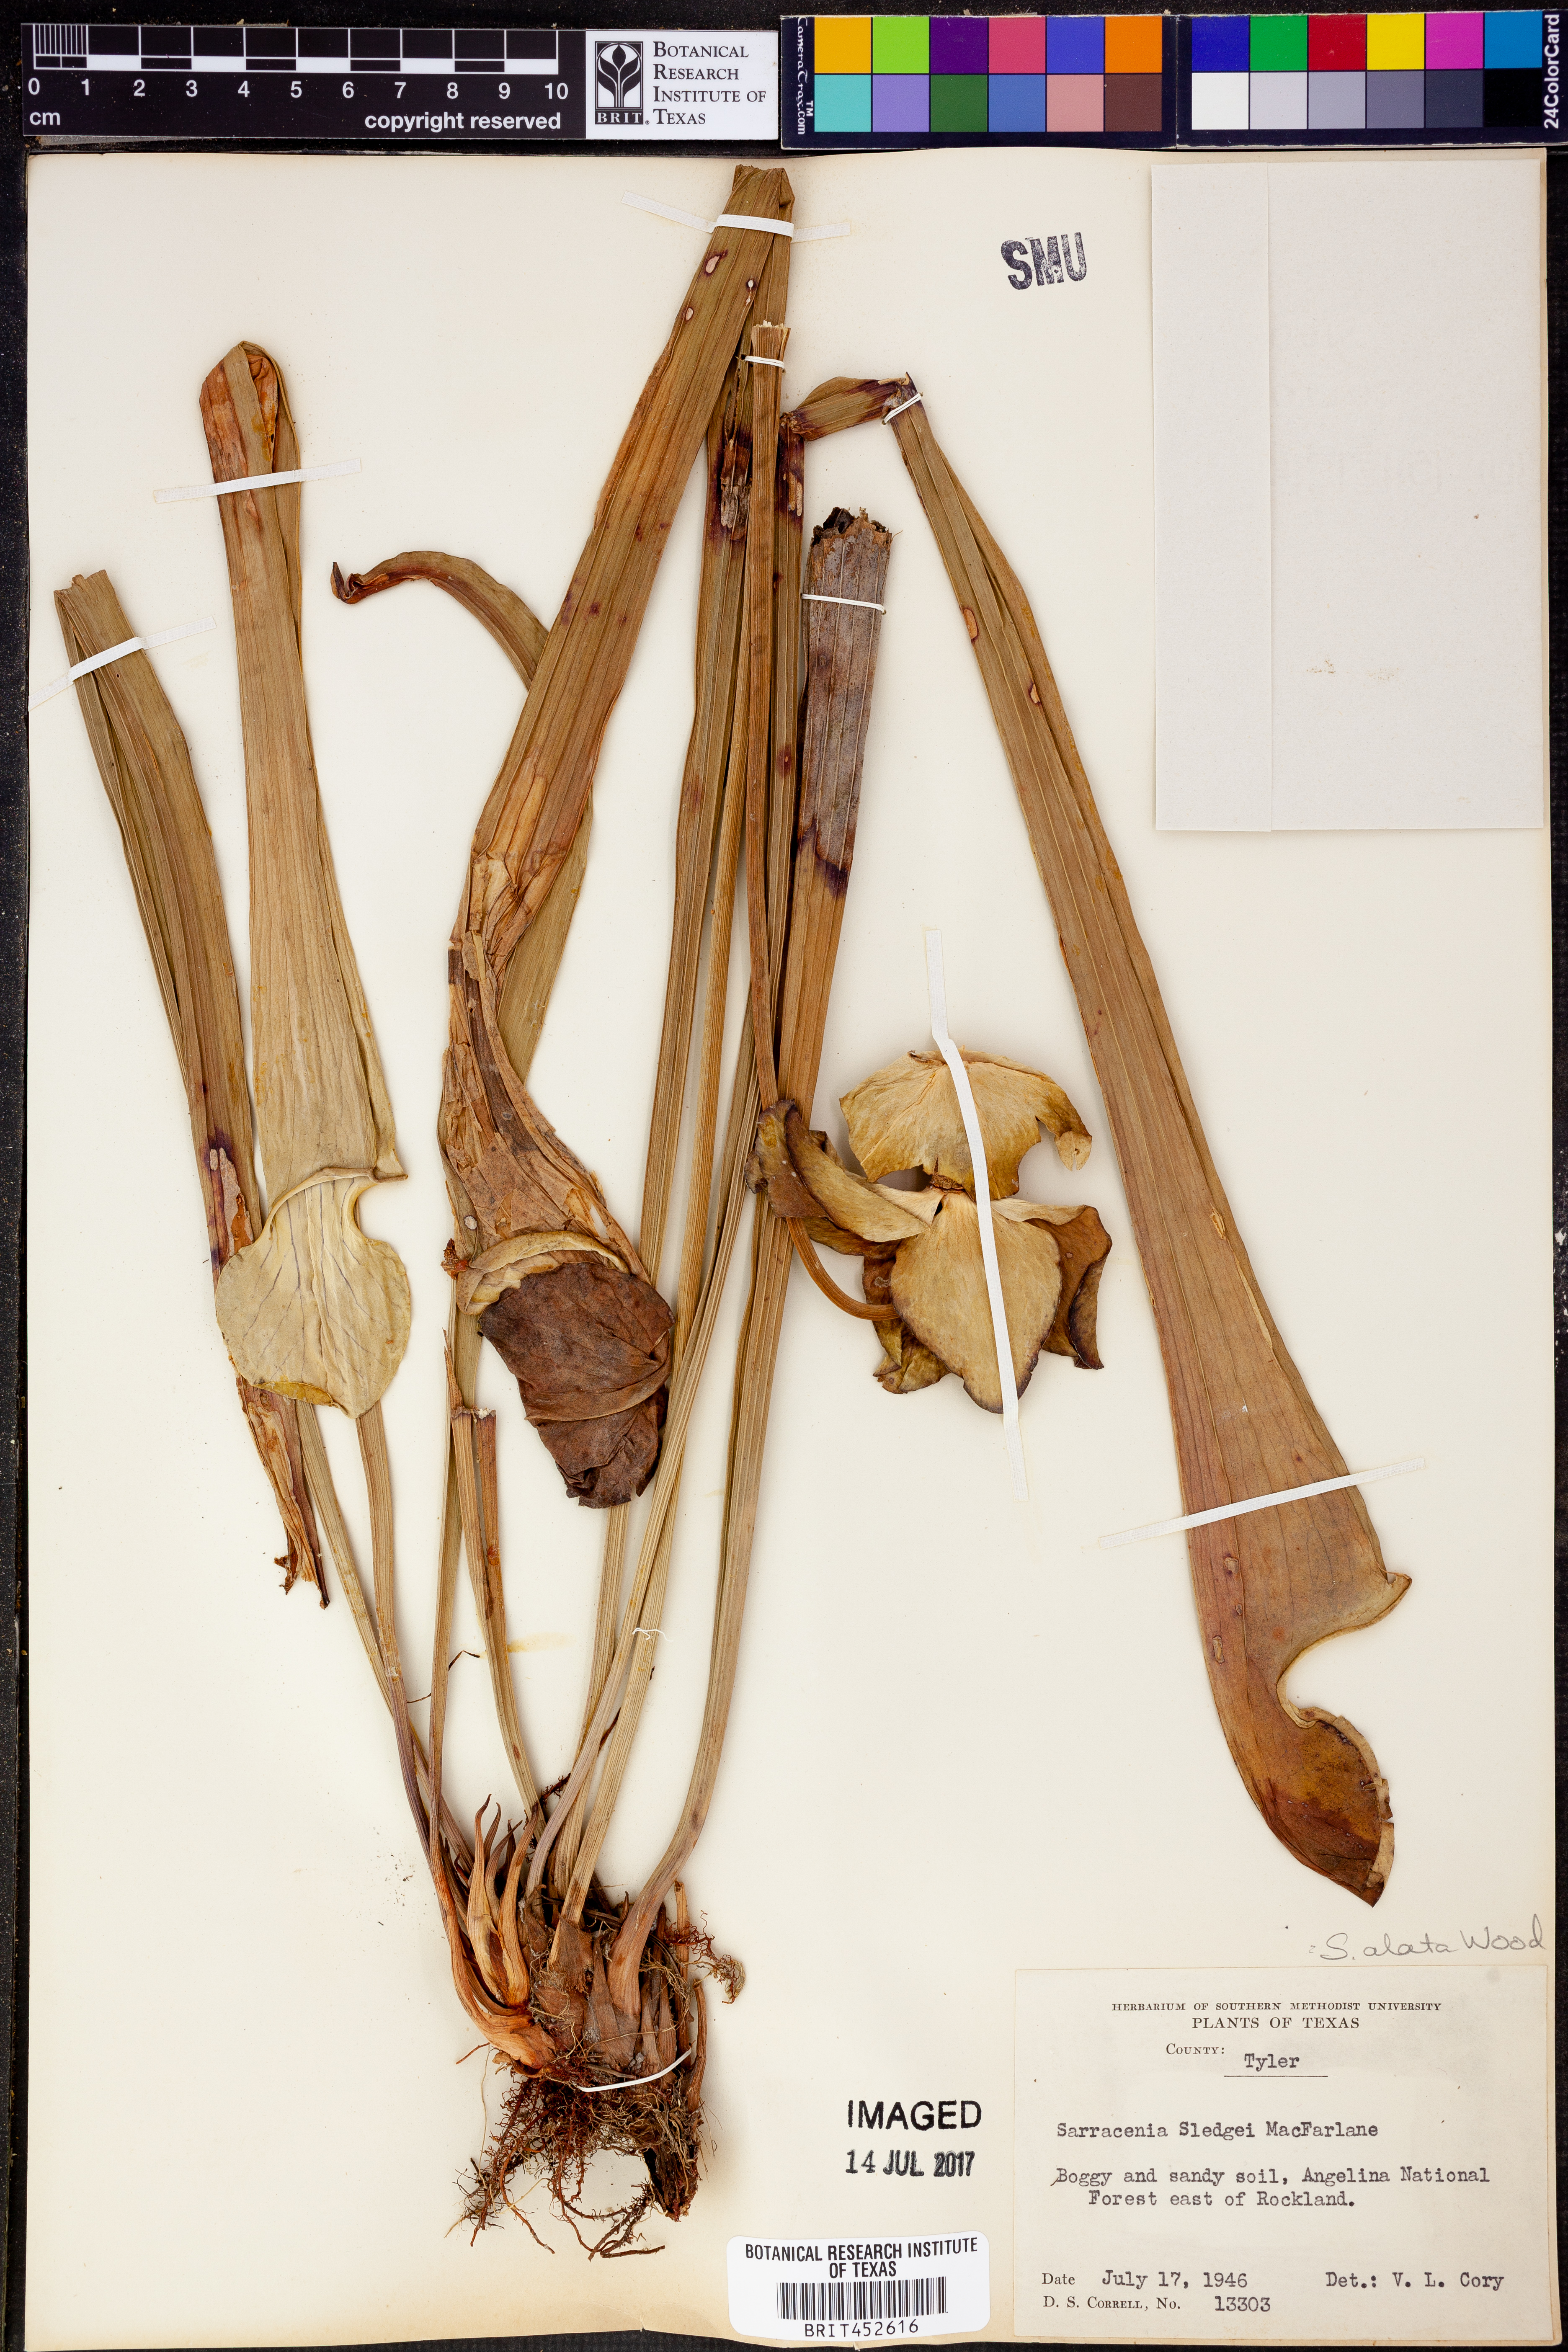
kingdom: Plantae
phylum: Tracheophyta
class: Magnoliopsida
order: Ericales
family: Sarraceniaceae
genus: Sarracenia
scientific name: Sarracenia alata
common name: Yellow trumpets
